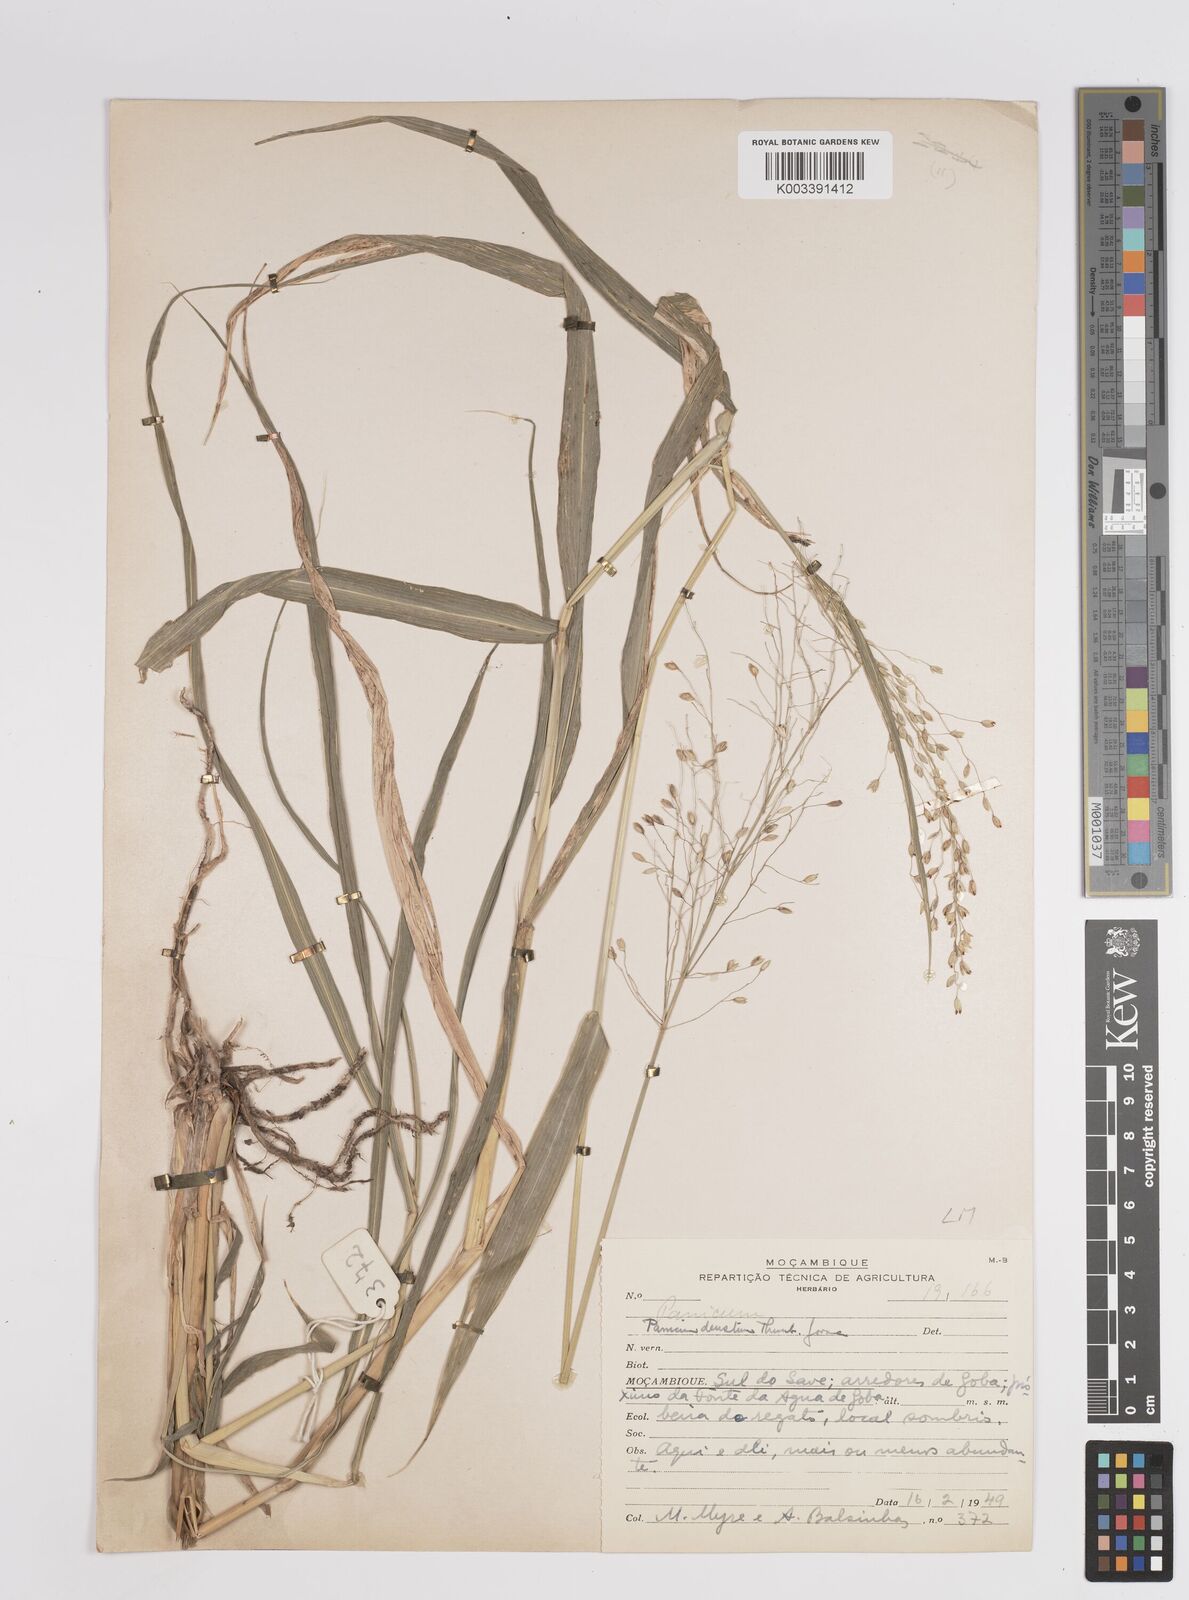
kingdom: Plantae
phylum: Tracheophyta
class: Liliopsida
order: Poales
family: Poaceae
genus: Panicum
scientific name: Panicum deustum
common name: Reed panicum
